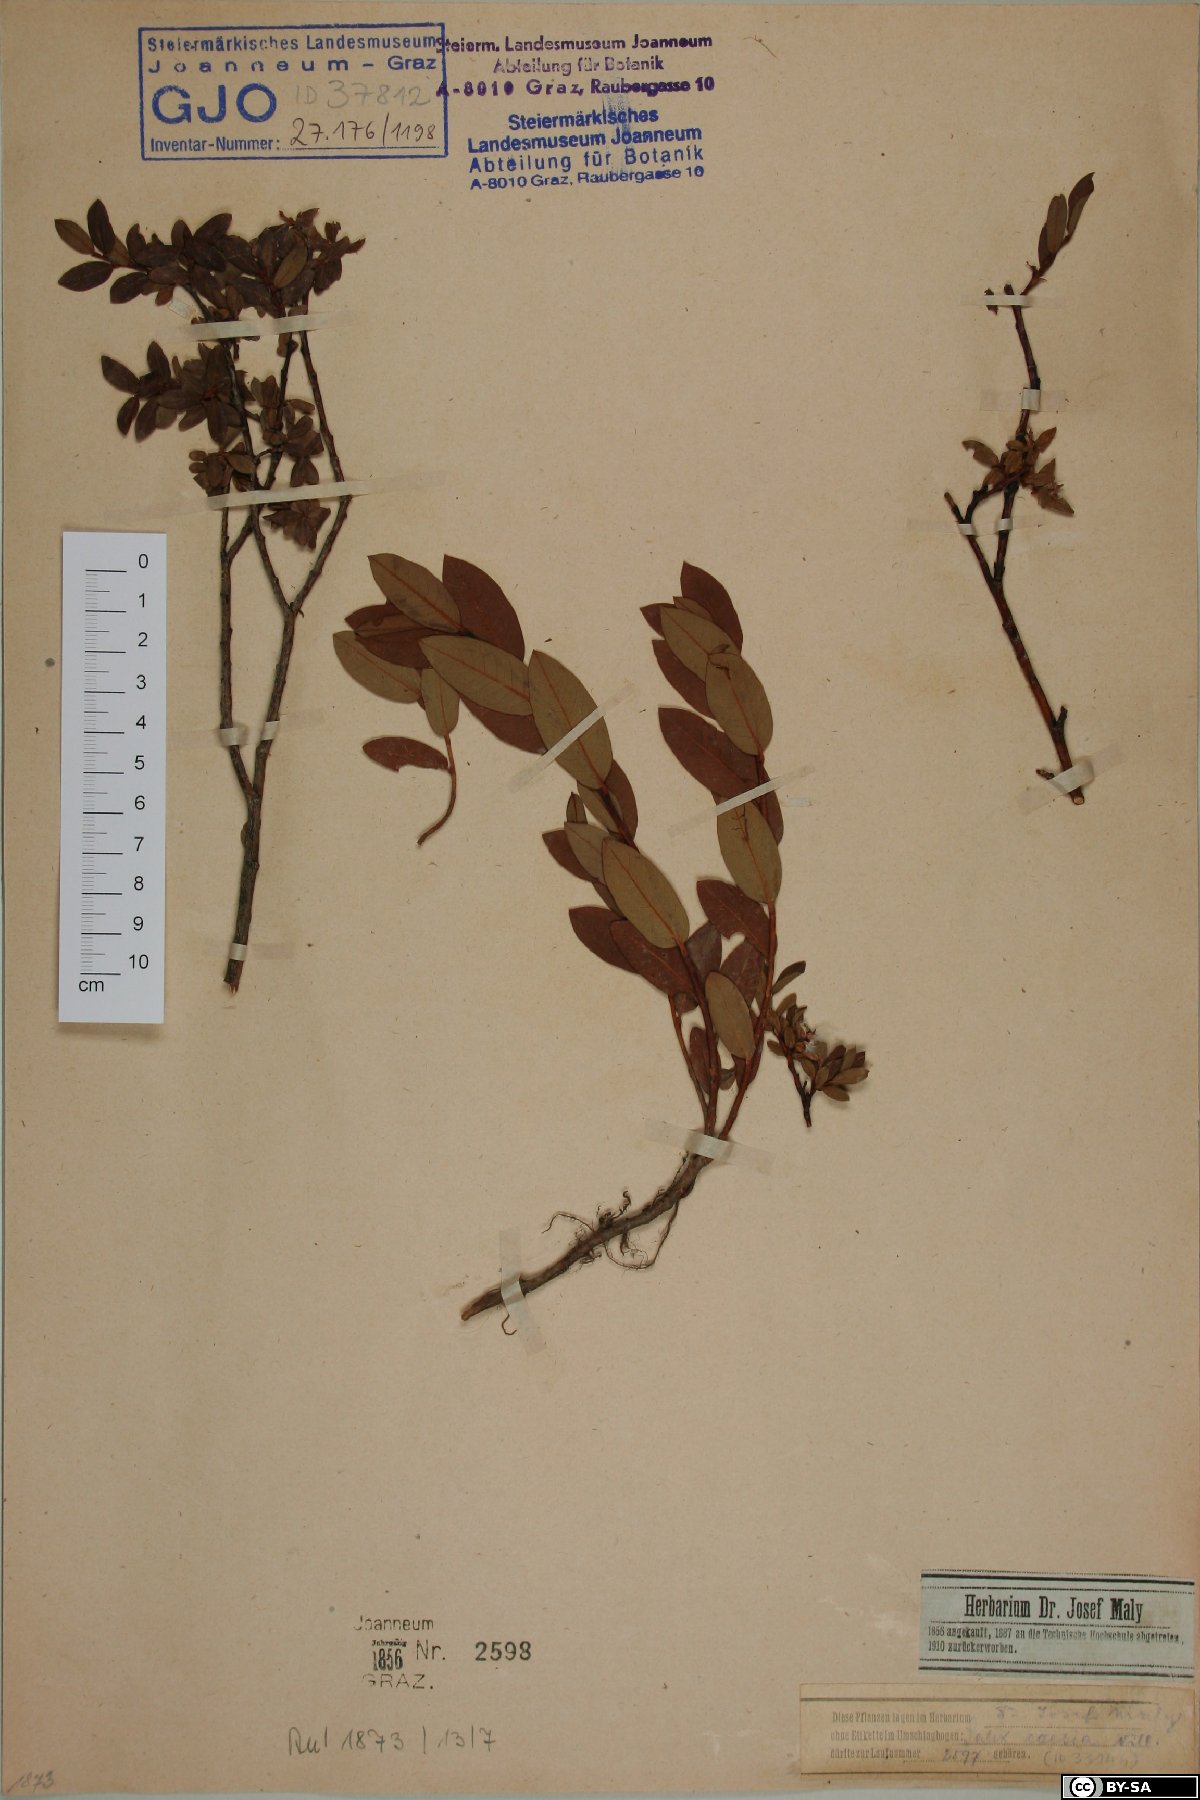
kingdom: Plantae
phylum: Tracheophyta
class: Magnoliopsida
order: Malpighiales
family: Salicaceae
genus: Salix
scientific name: Salix caesia
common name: Blue willow
